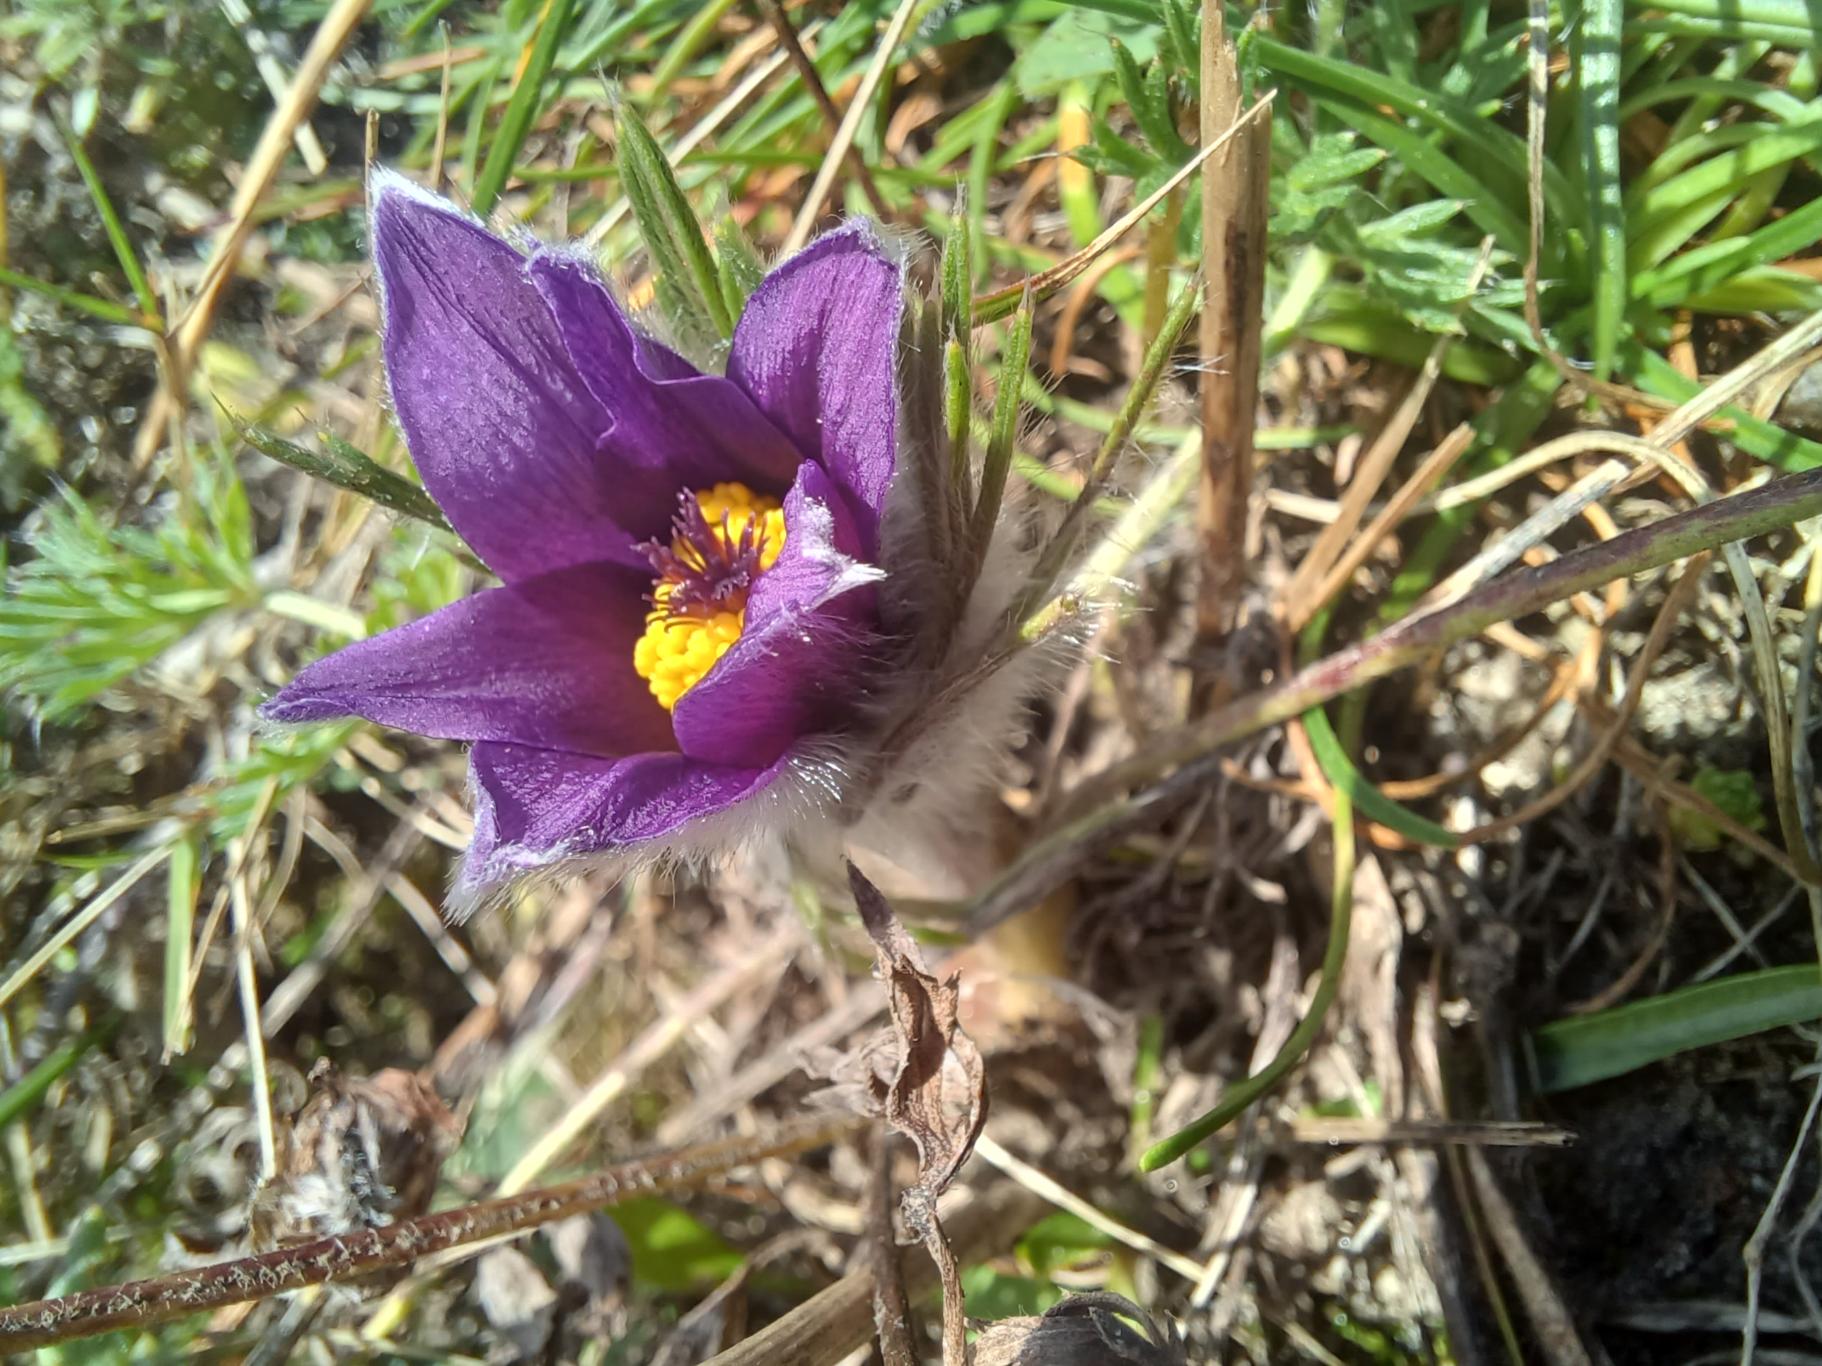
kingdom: Plantae
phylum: Tracheophyta
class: Magnoliopsida
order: Ranunculales
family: Ranunculaceae
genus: Pulsatilla
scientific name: Pulsatilla vulgaris
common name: Opret kobjælde
